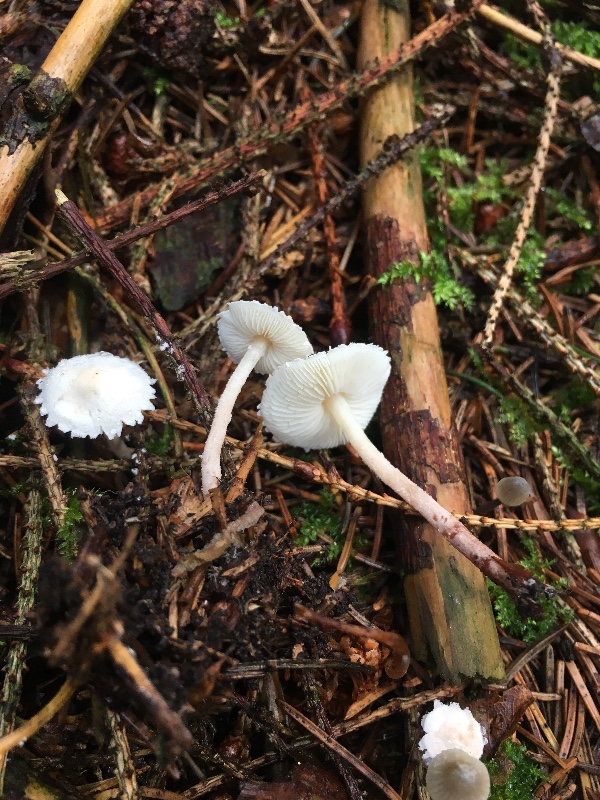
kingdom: Fungi
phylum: Basidiomycota
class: Agaricomycetes
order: Agaricales
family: Agaricaceae
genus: Cystolepiota
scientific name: Cystolepiota seminuda
